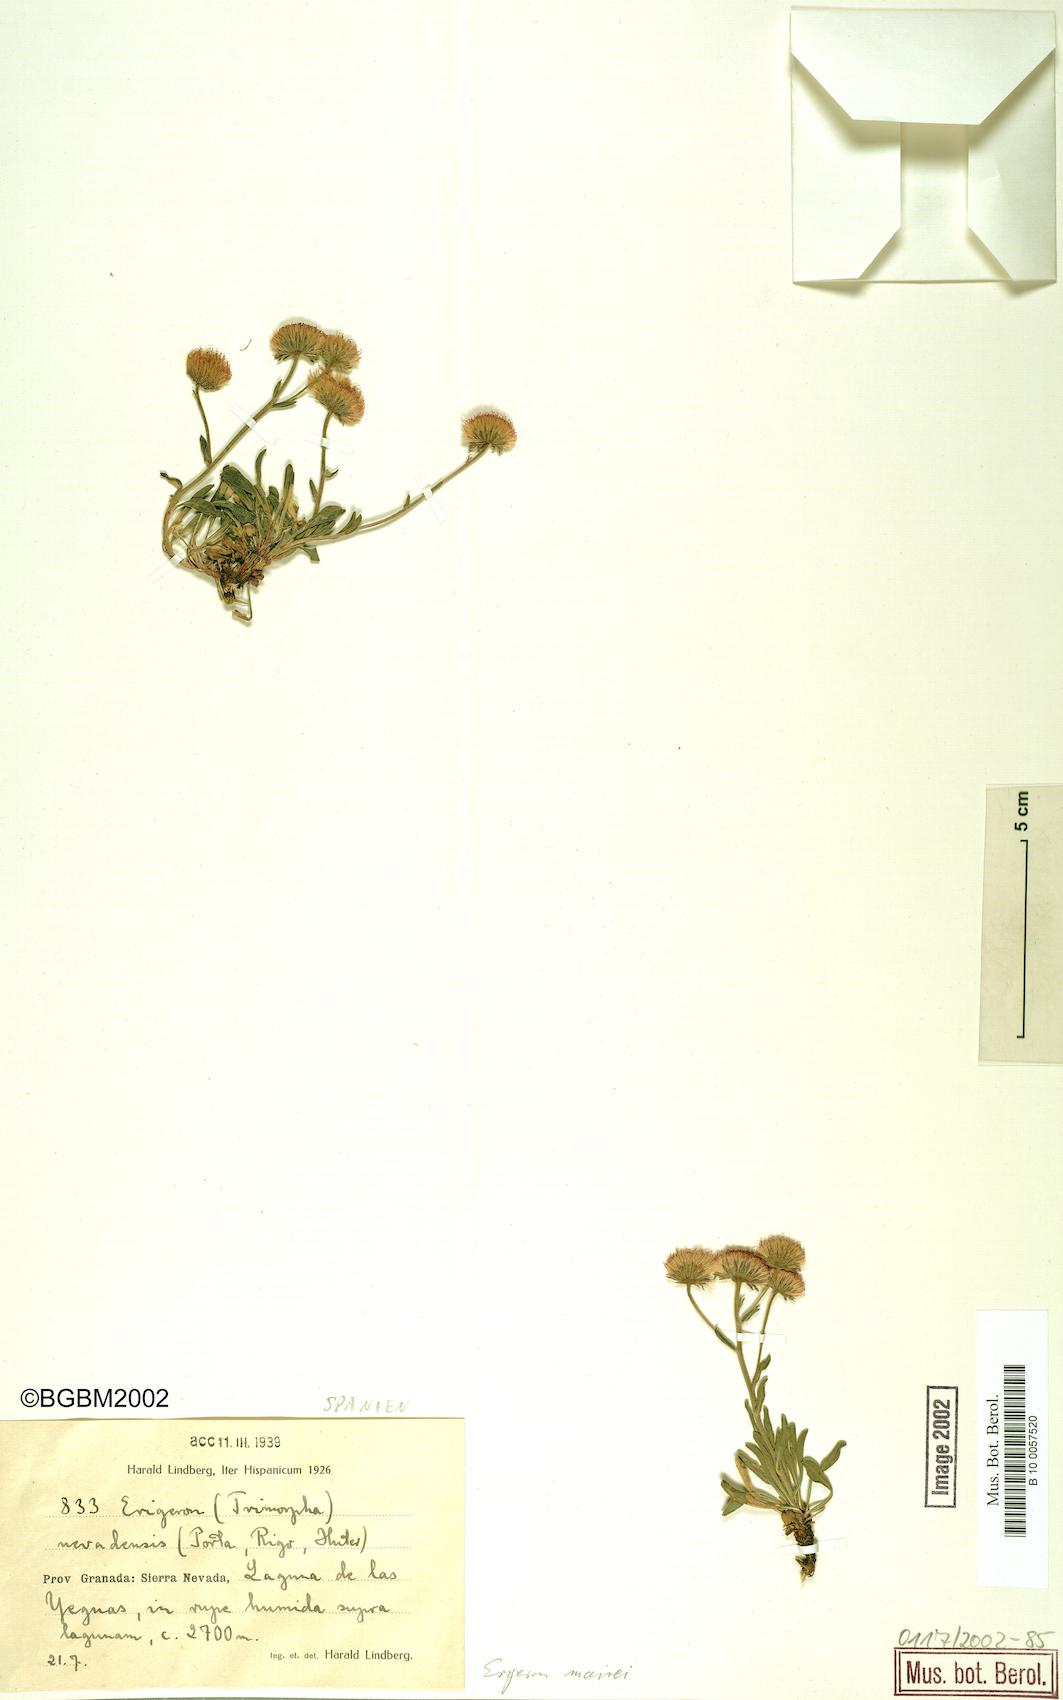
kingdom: Plantae
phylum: Tracheophyta
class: Magnoliopsida
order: Asterales
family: Asteraceae
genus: Erigeron
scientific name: Erigeron granatensis
